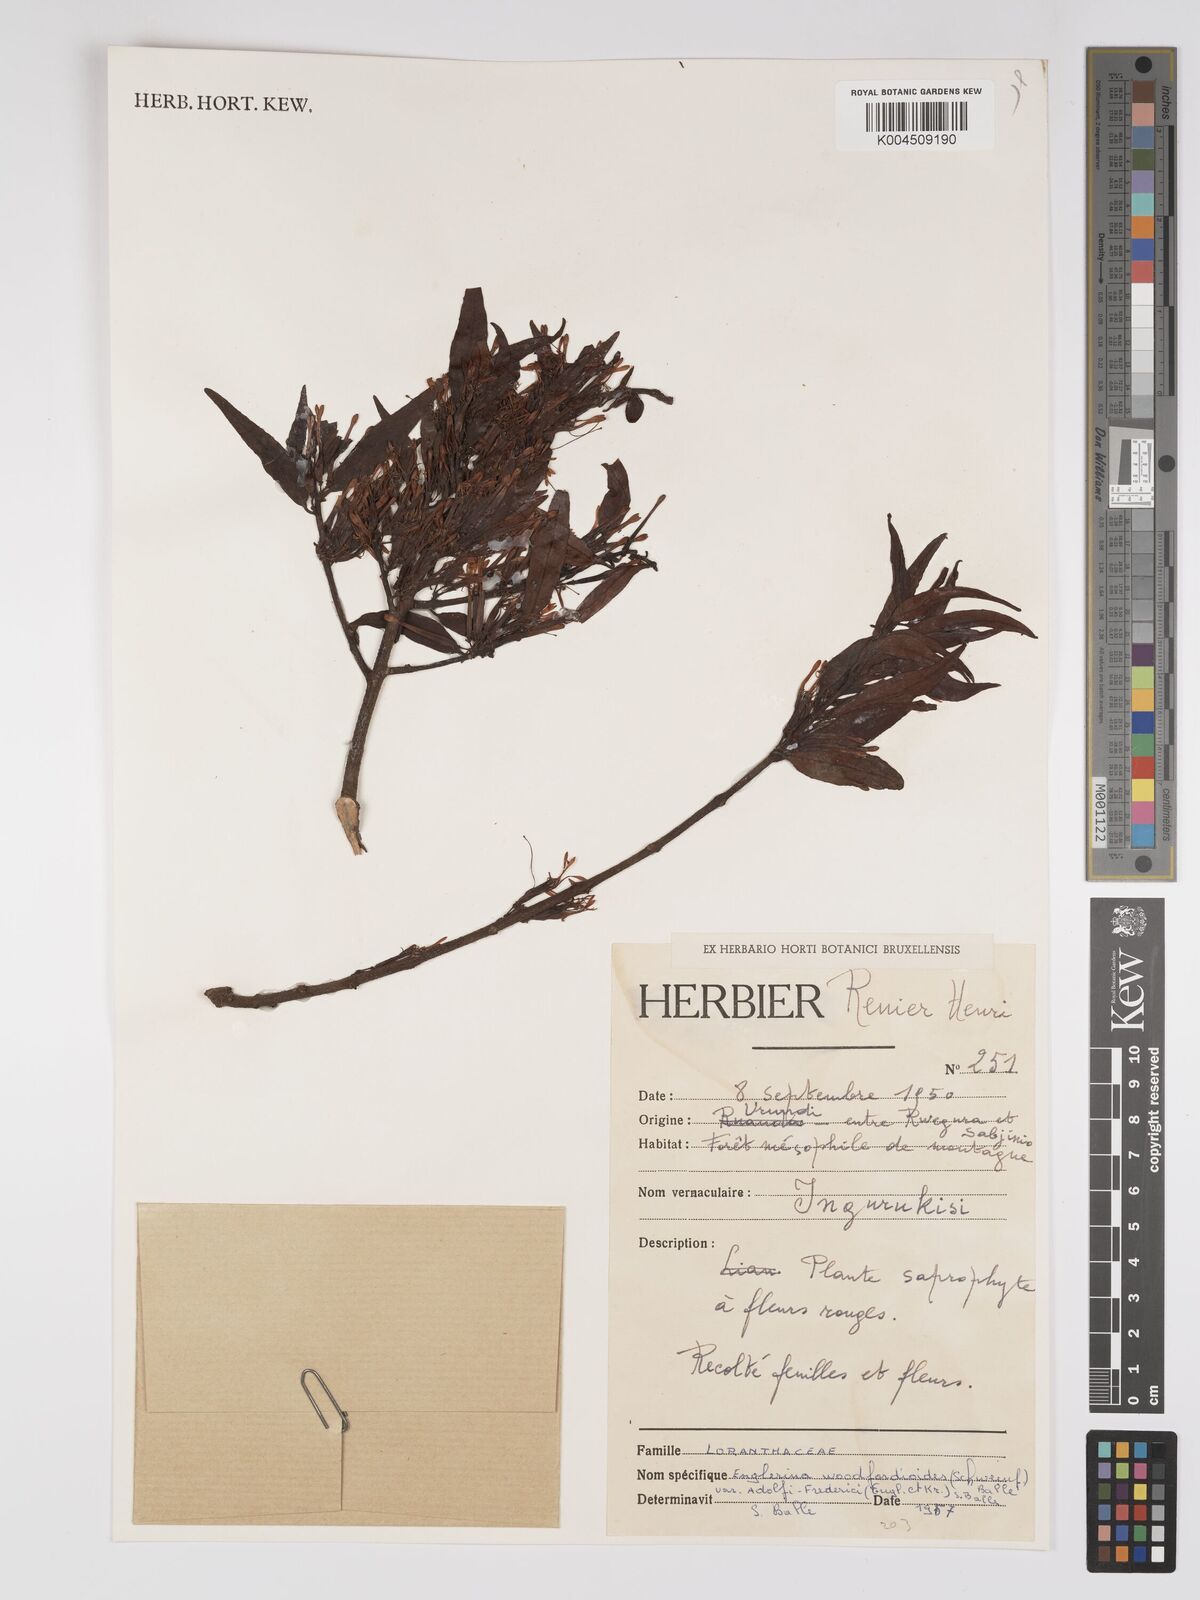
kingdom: Plantae
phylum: Tracheophyta
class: Magnoliopsida
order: Santalales
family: Loranthaceae
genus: Englerina
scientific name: Englerina woodfordioides
